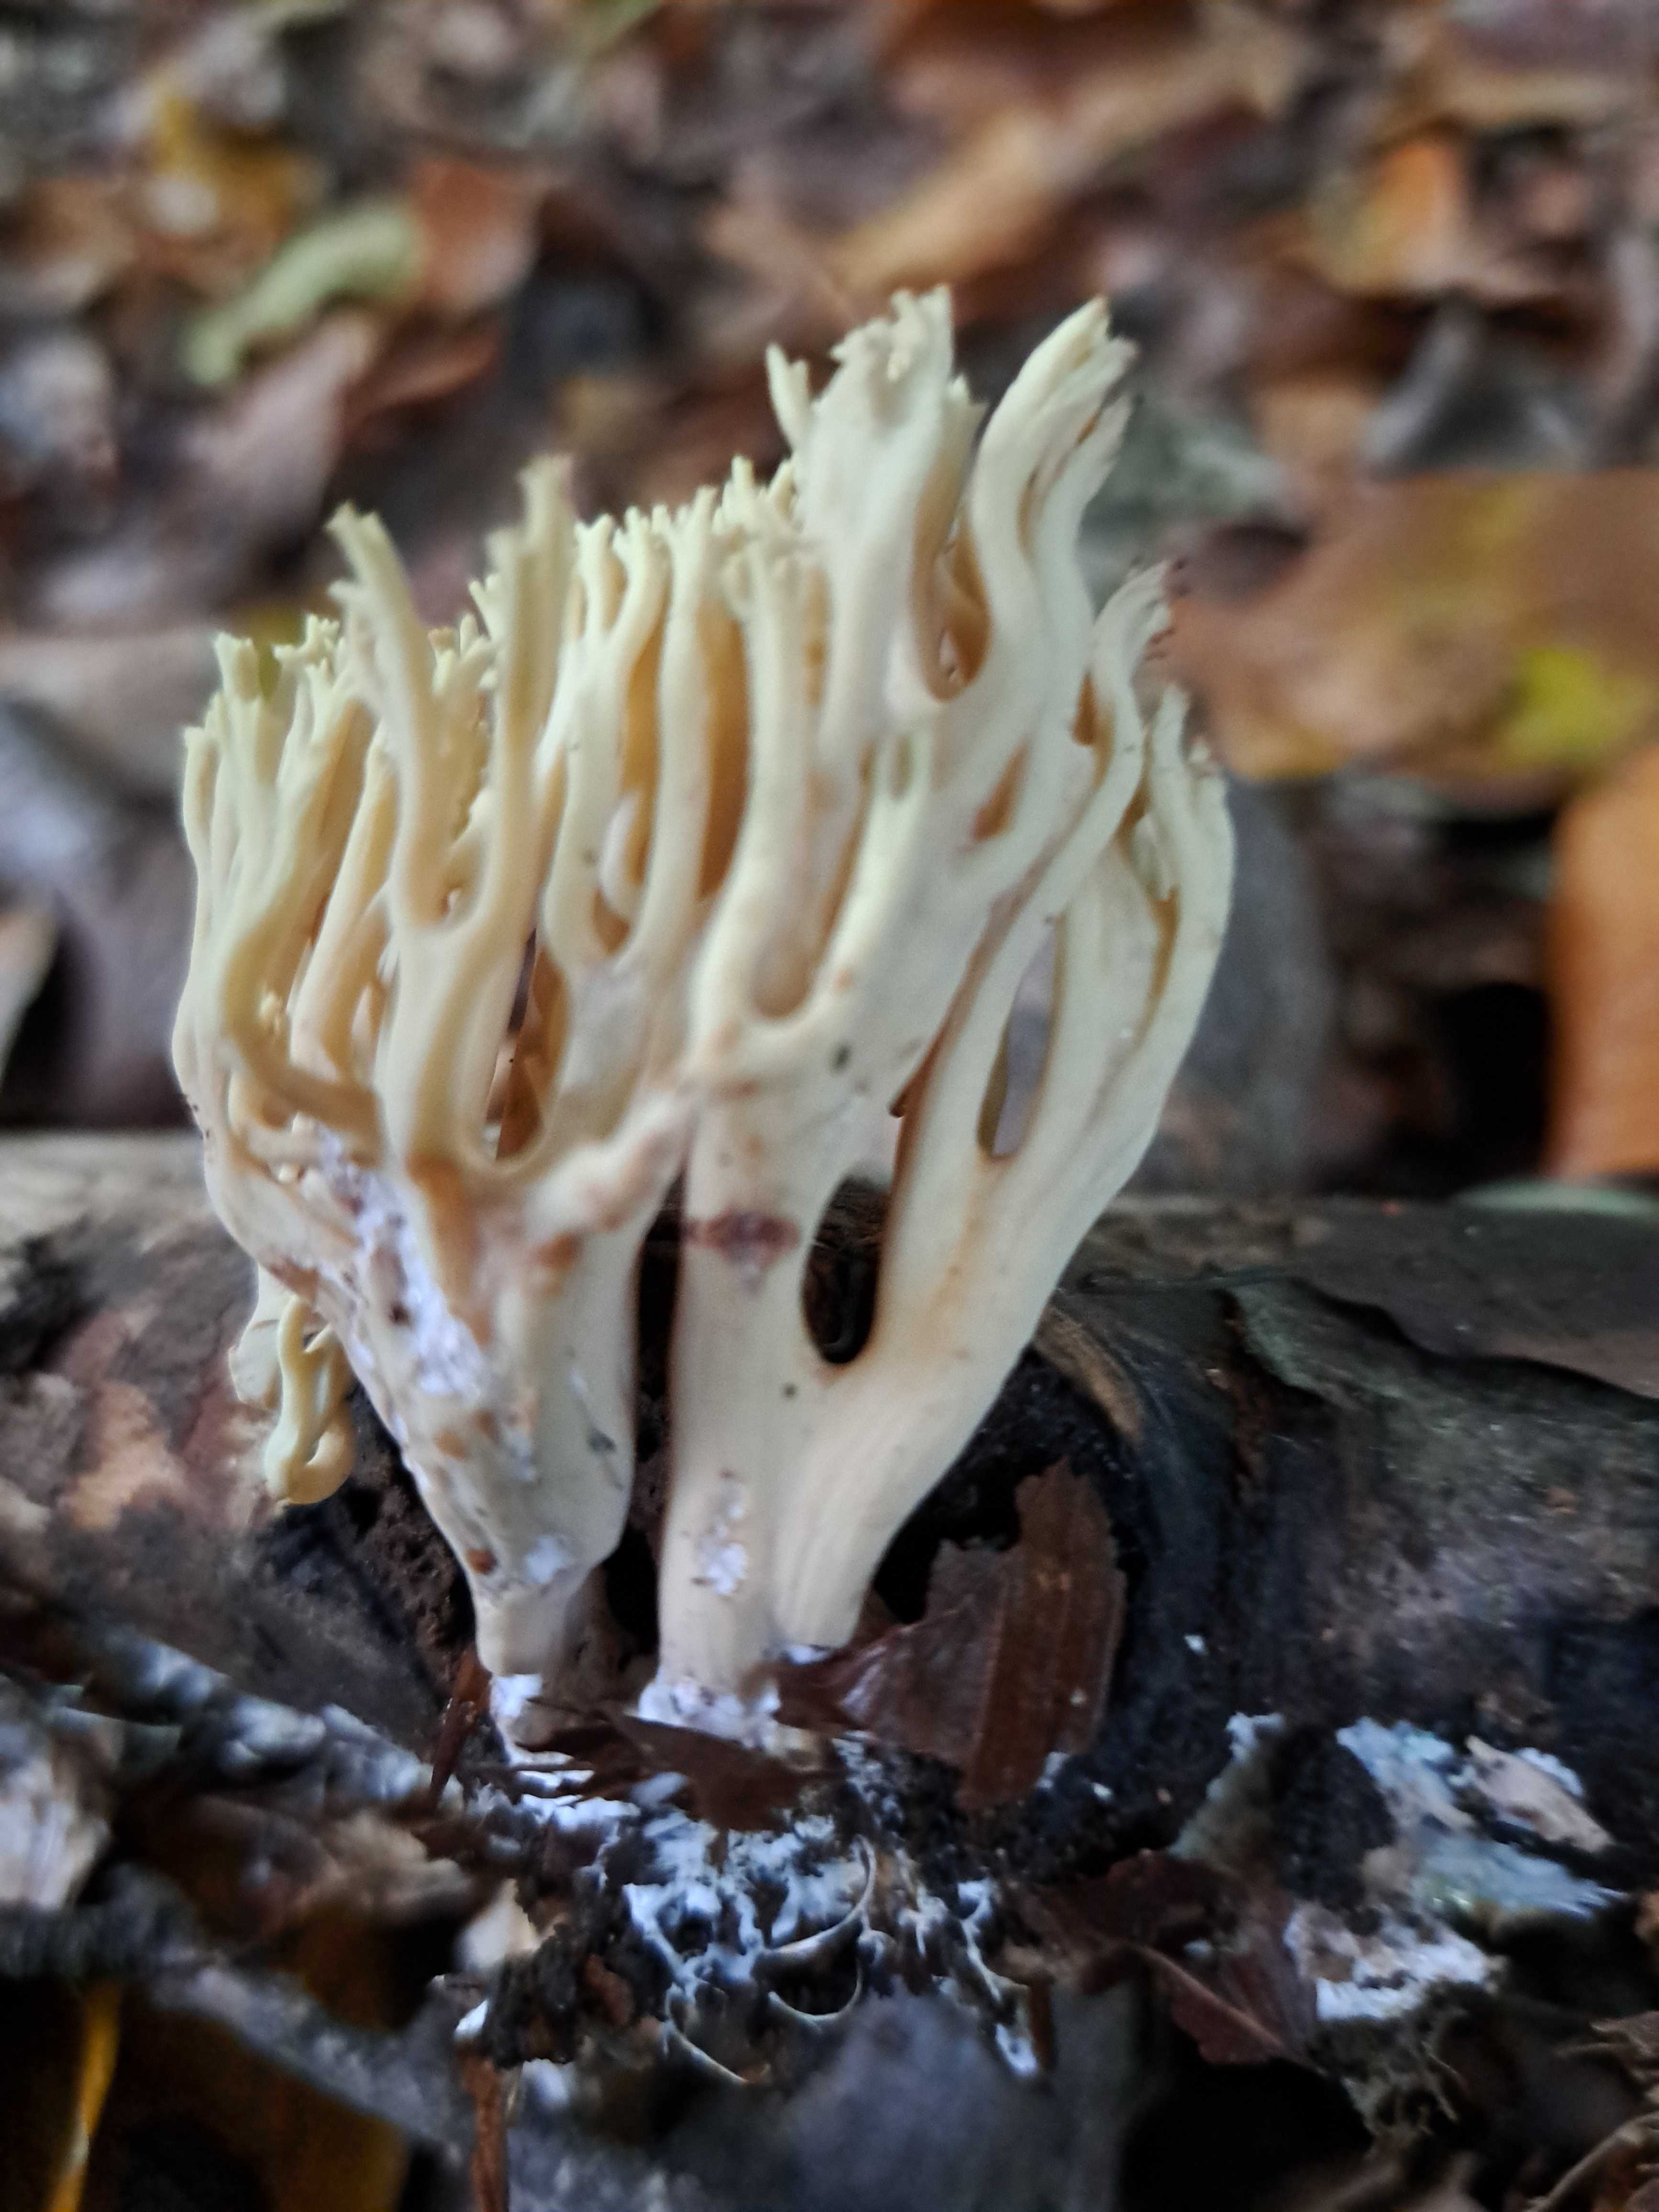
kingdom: Fungi
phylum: Basidiomycota
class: Agaricomycetes
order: Gomphales
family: Gomphaceae
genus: Ramaria
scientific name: Ramaria stricta
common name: rank koralsvamp
